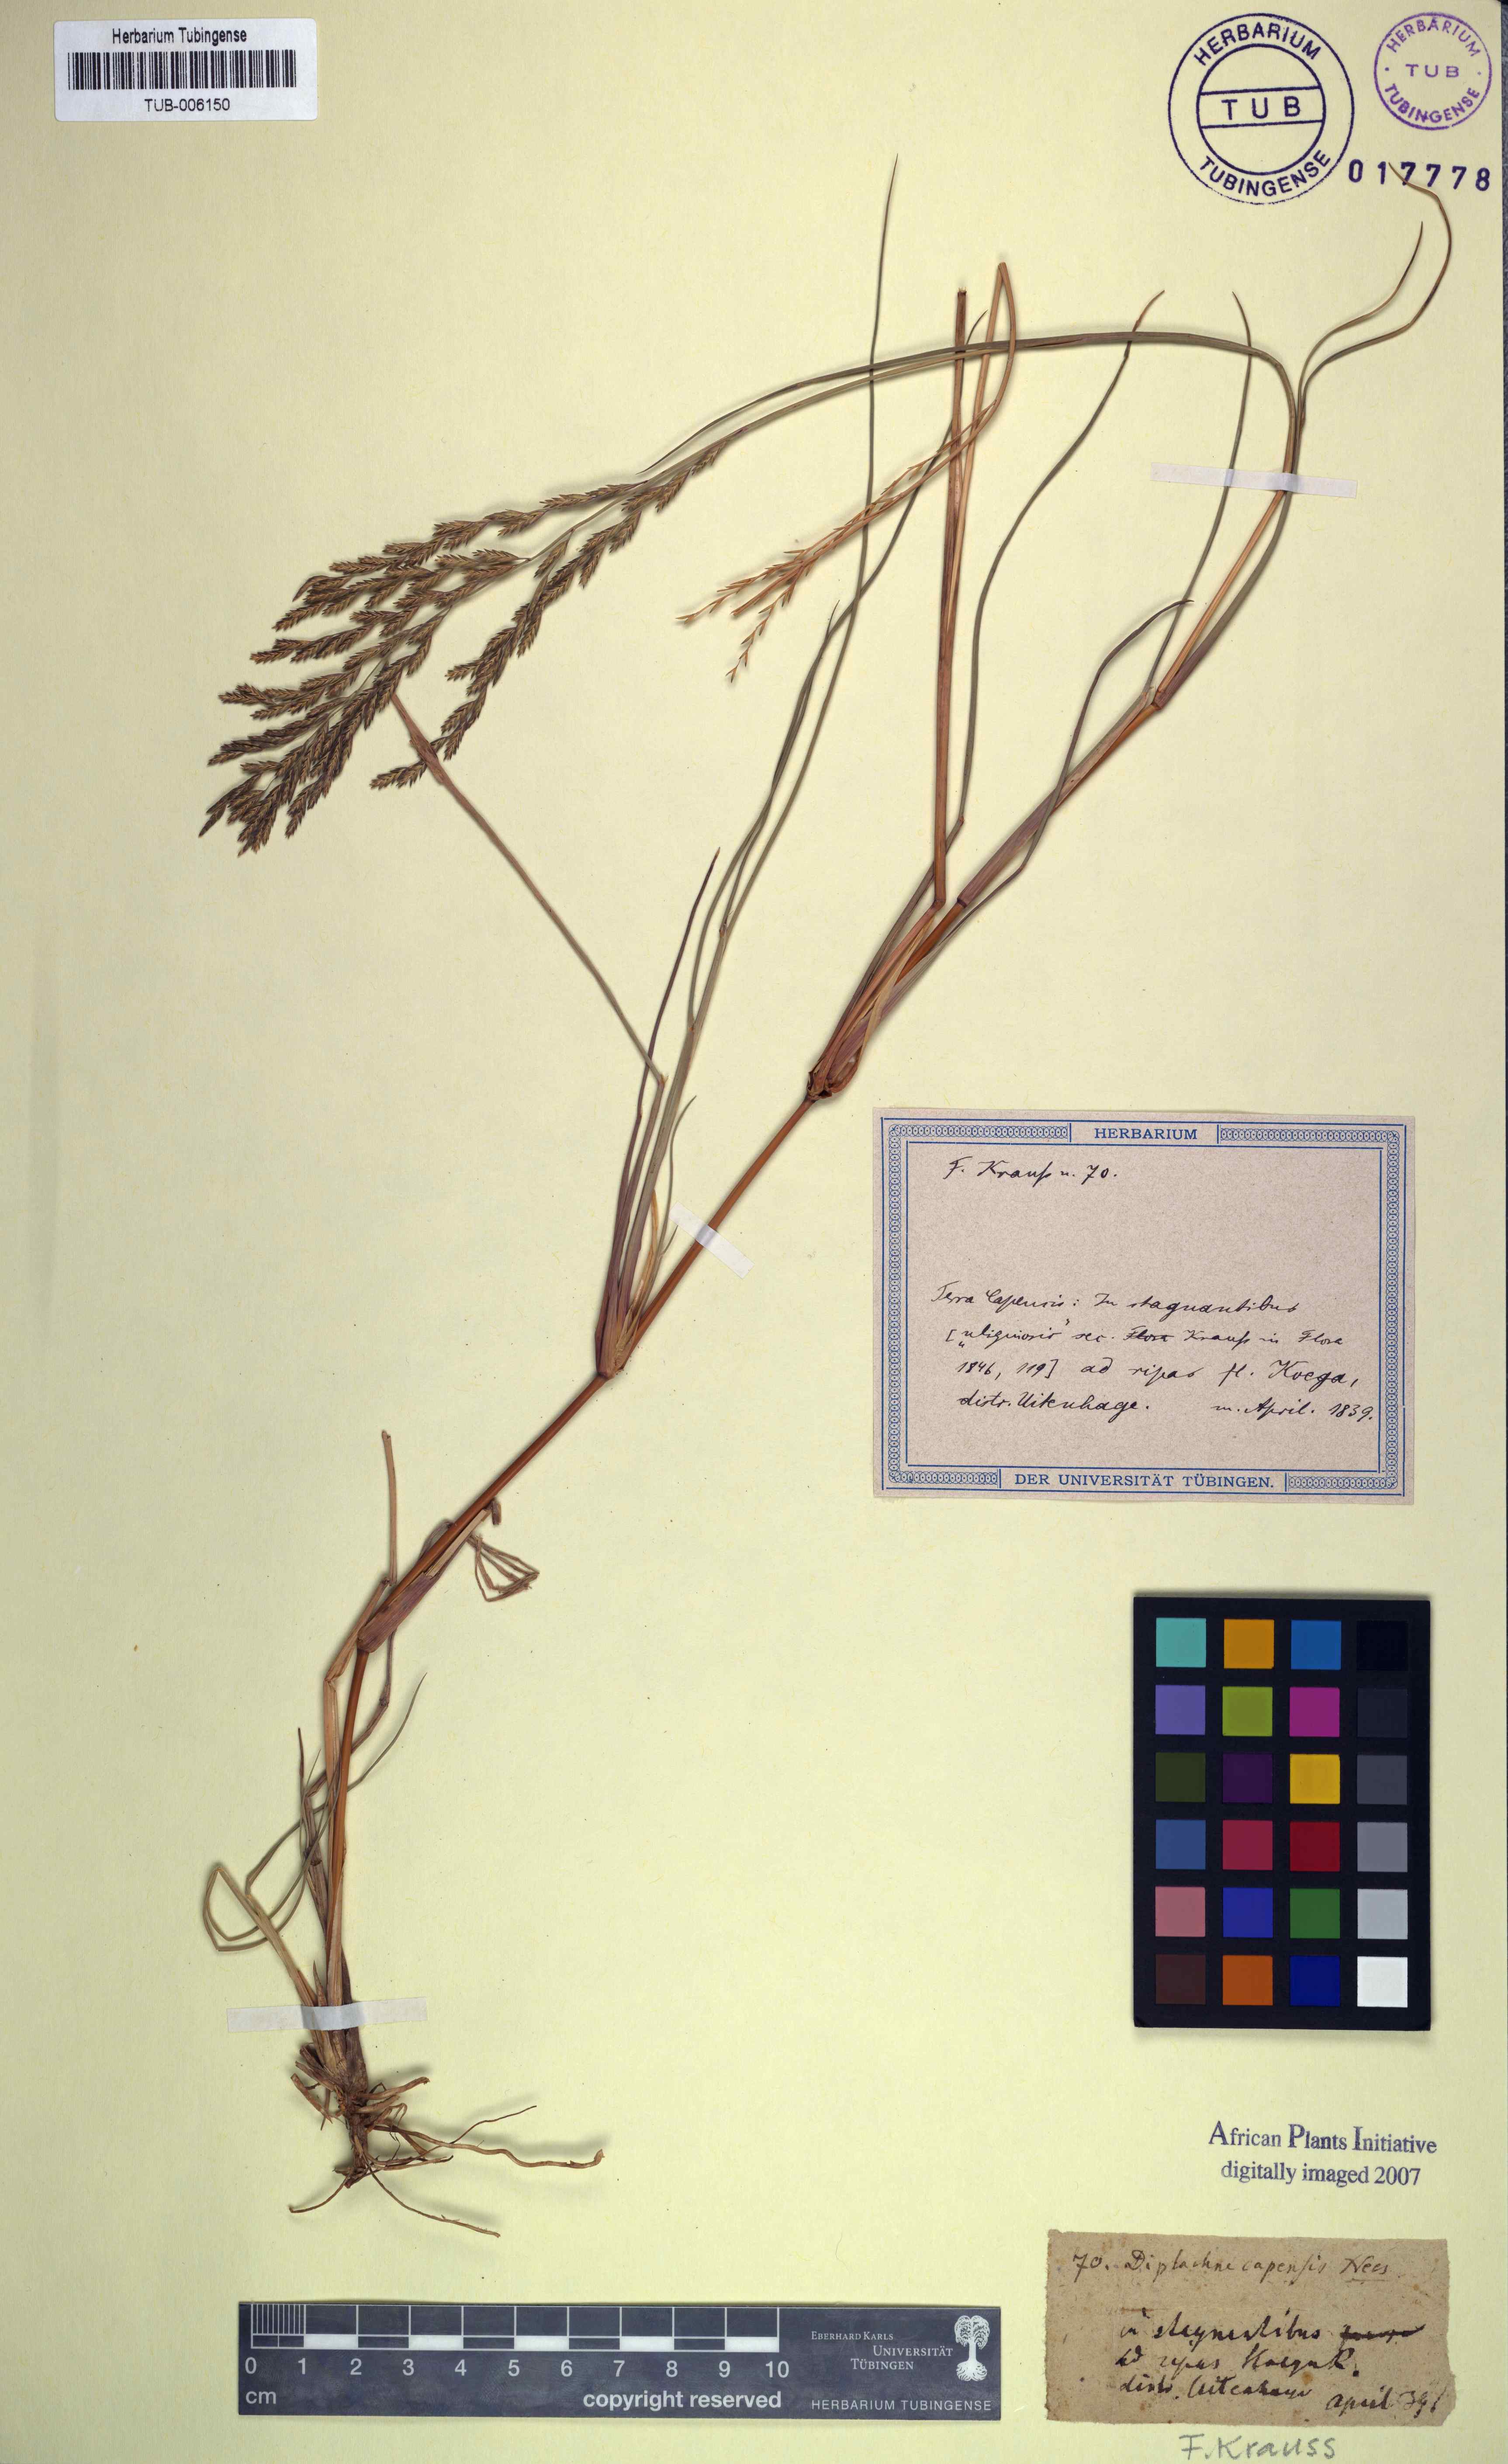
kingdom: Plantae
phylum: Tracheophyta
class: Liliopsida
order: Poales
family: Poaceae
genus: Diplachne
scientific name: Diplachne fusca
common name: Brown beetle grass
